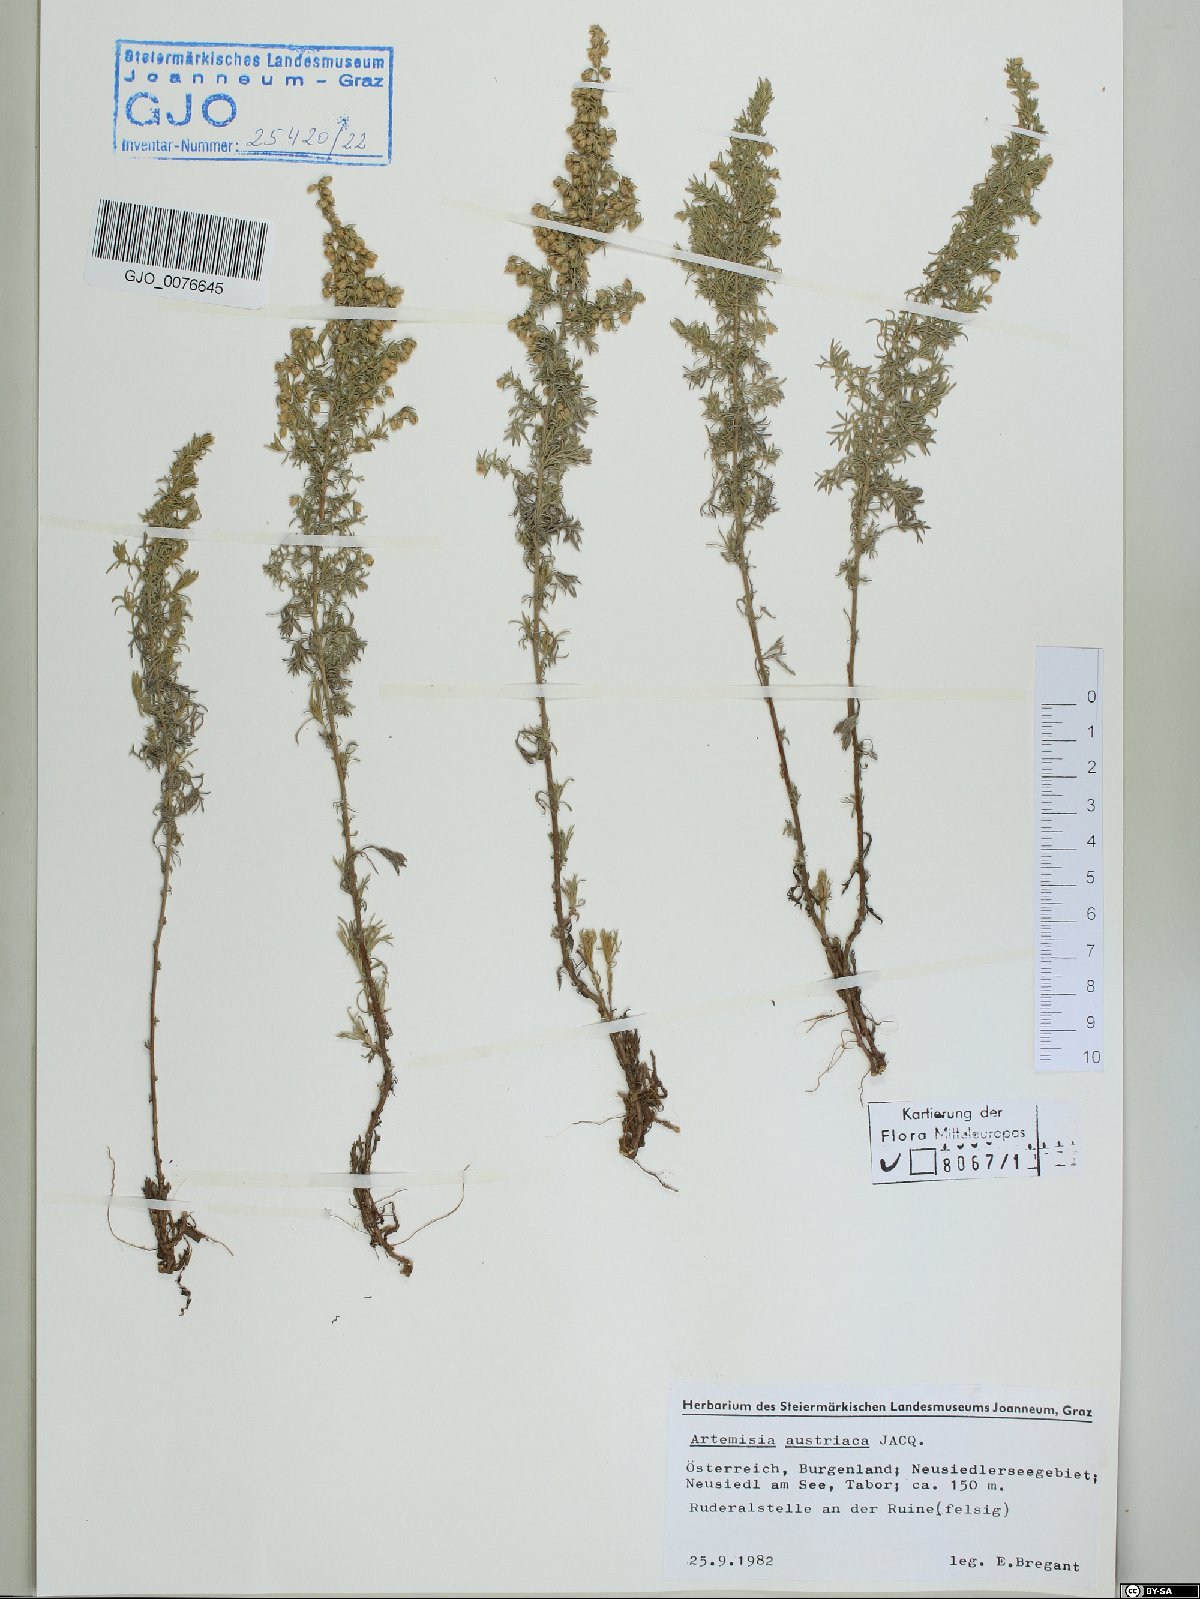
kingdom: Plantae
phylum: Tracheophyta
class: Magnoliopsida
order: Asterales
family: Asteraceae
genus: Artemisia
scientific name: Artemisia austriaca
